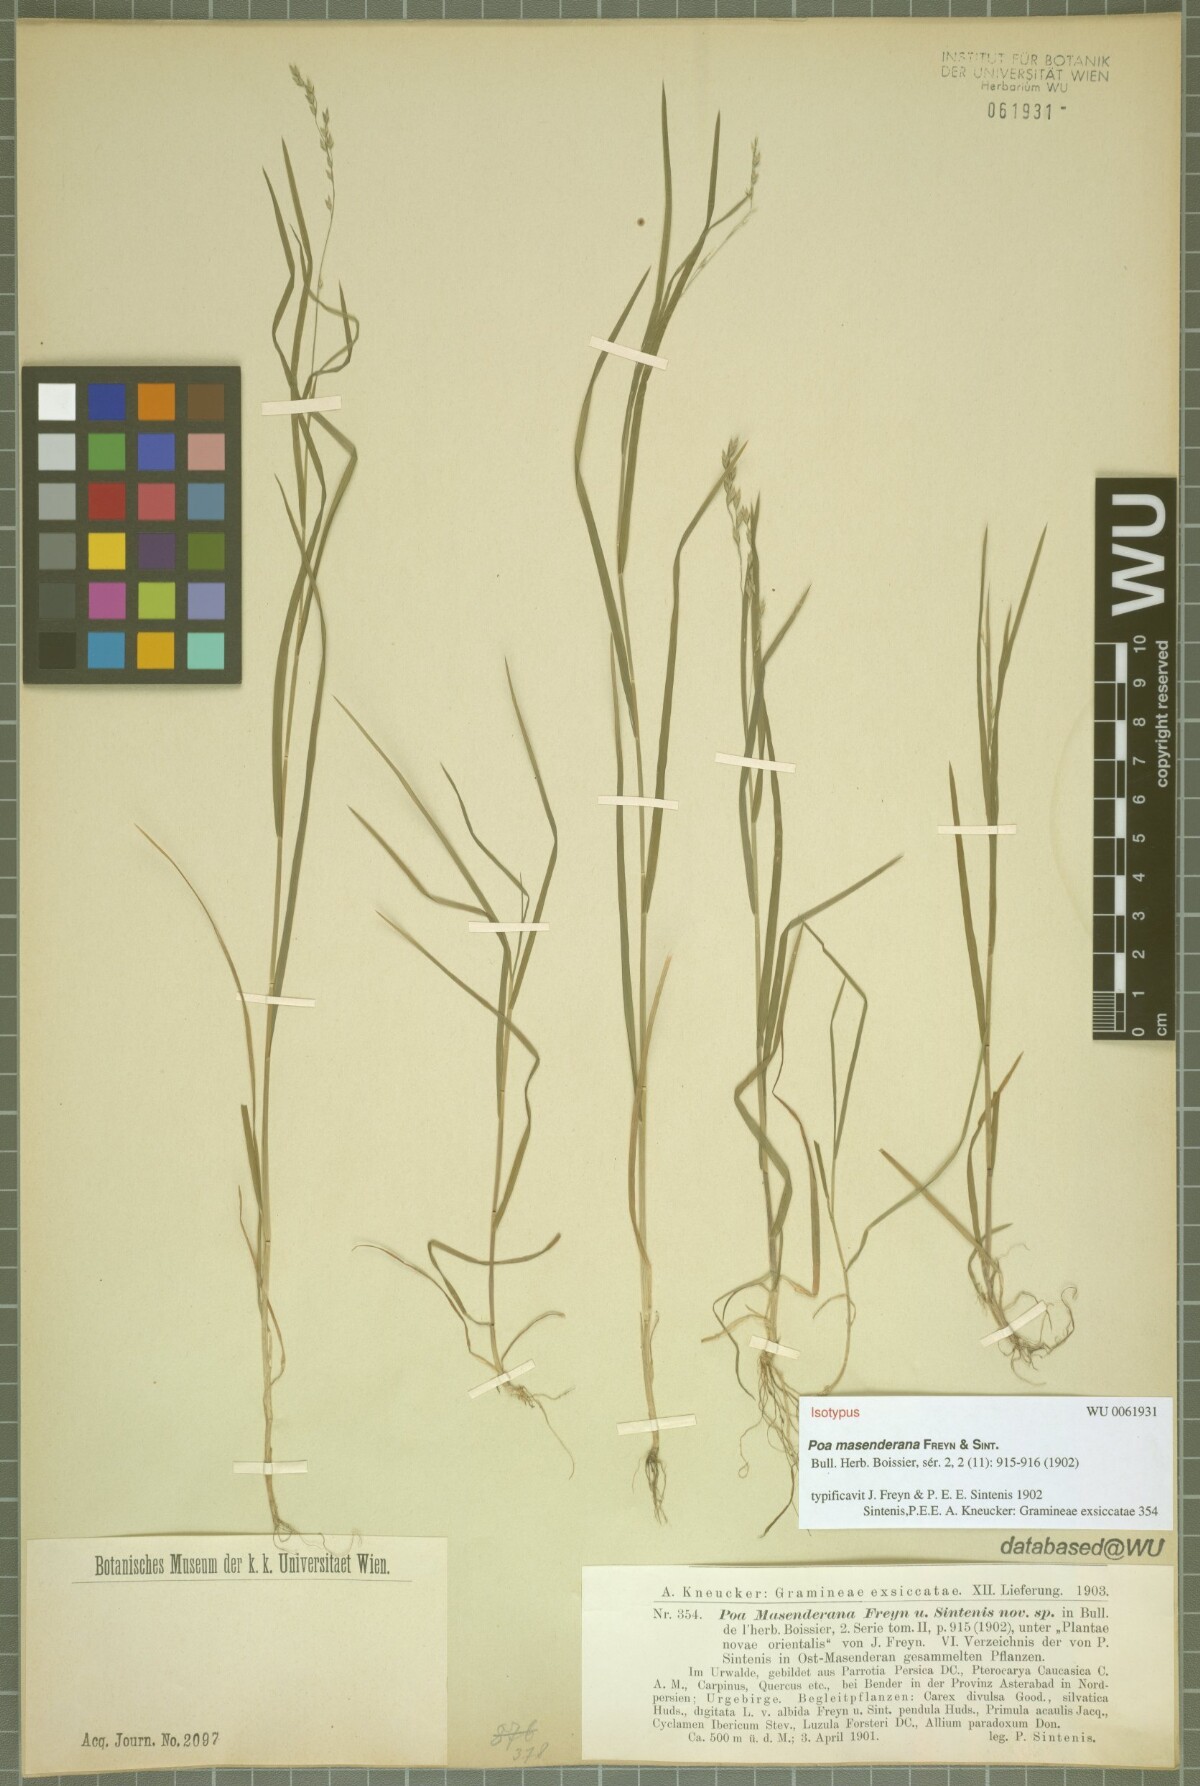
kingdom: Plantae
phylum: Tracheophyta
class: Liliopsida
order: Poales
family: Poaceae
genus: Poa
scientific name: Poa masenderana
